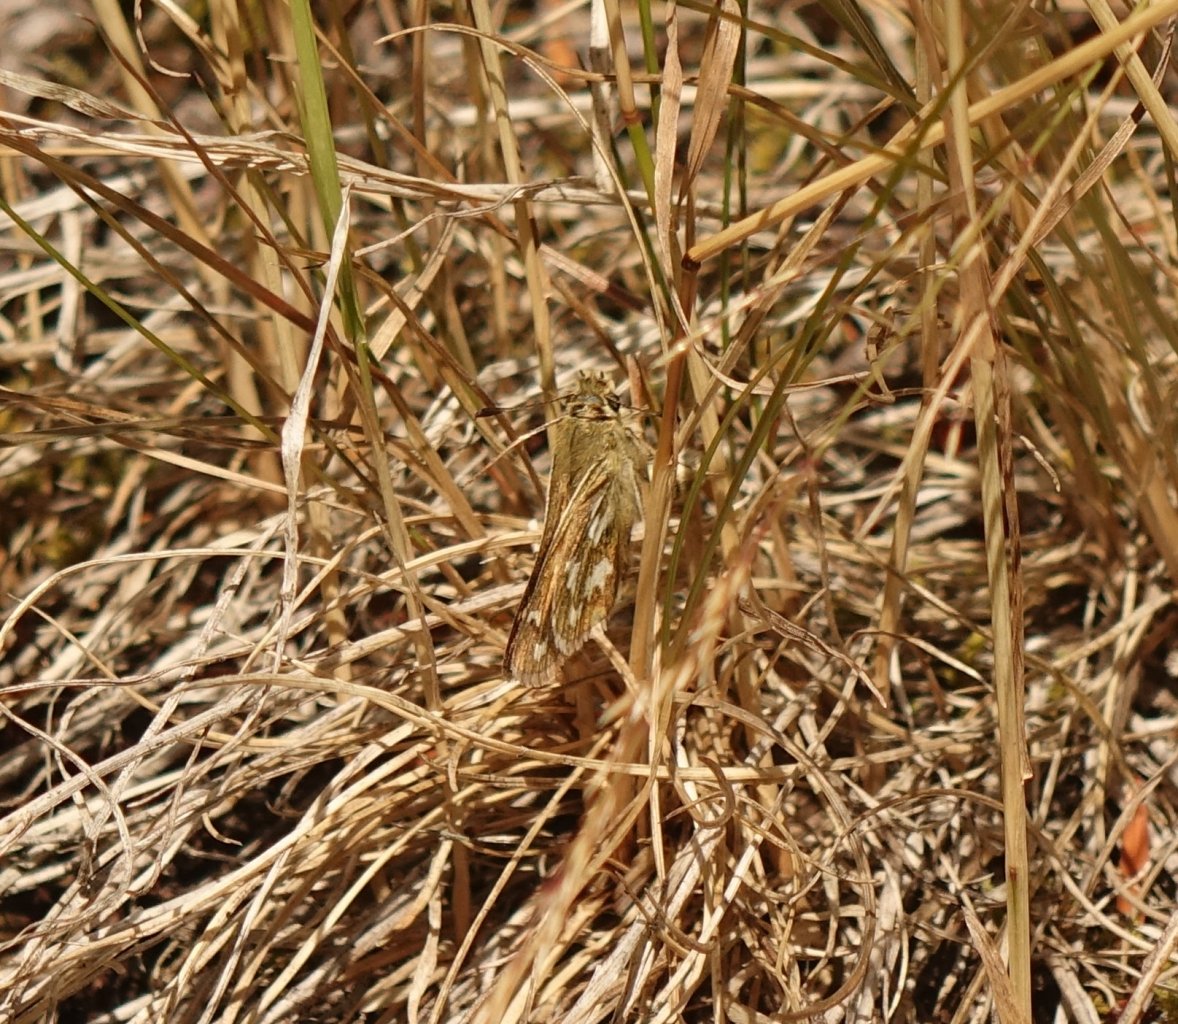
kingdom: Animalia
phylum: Arthropoda
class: Insecta
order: Lepidoptera
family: Hesperiidae
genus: Hesperia
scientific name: Hesperia
